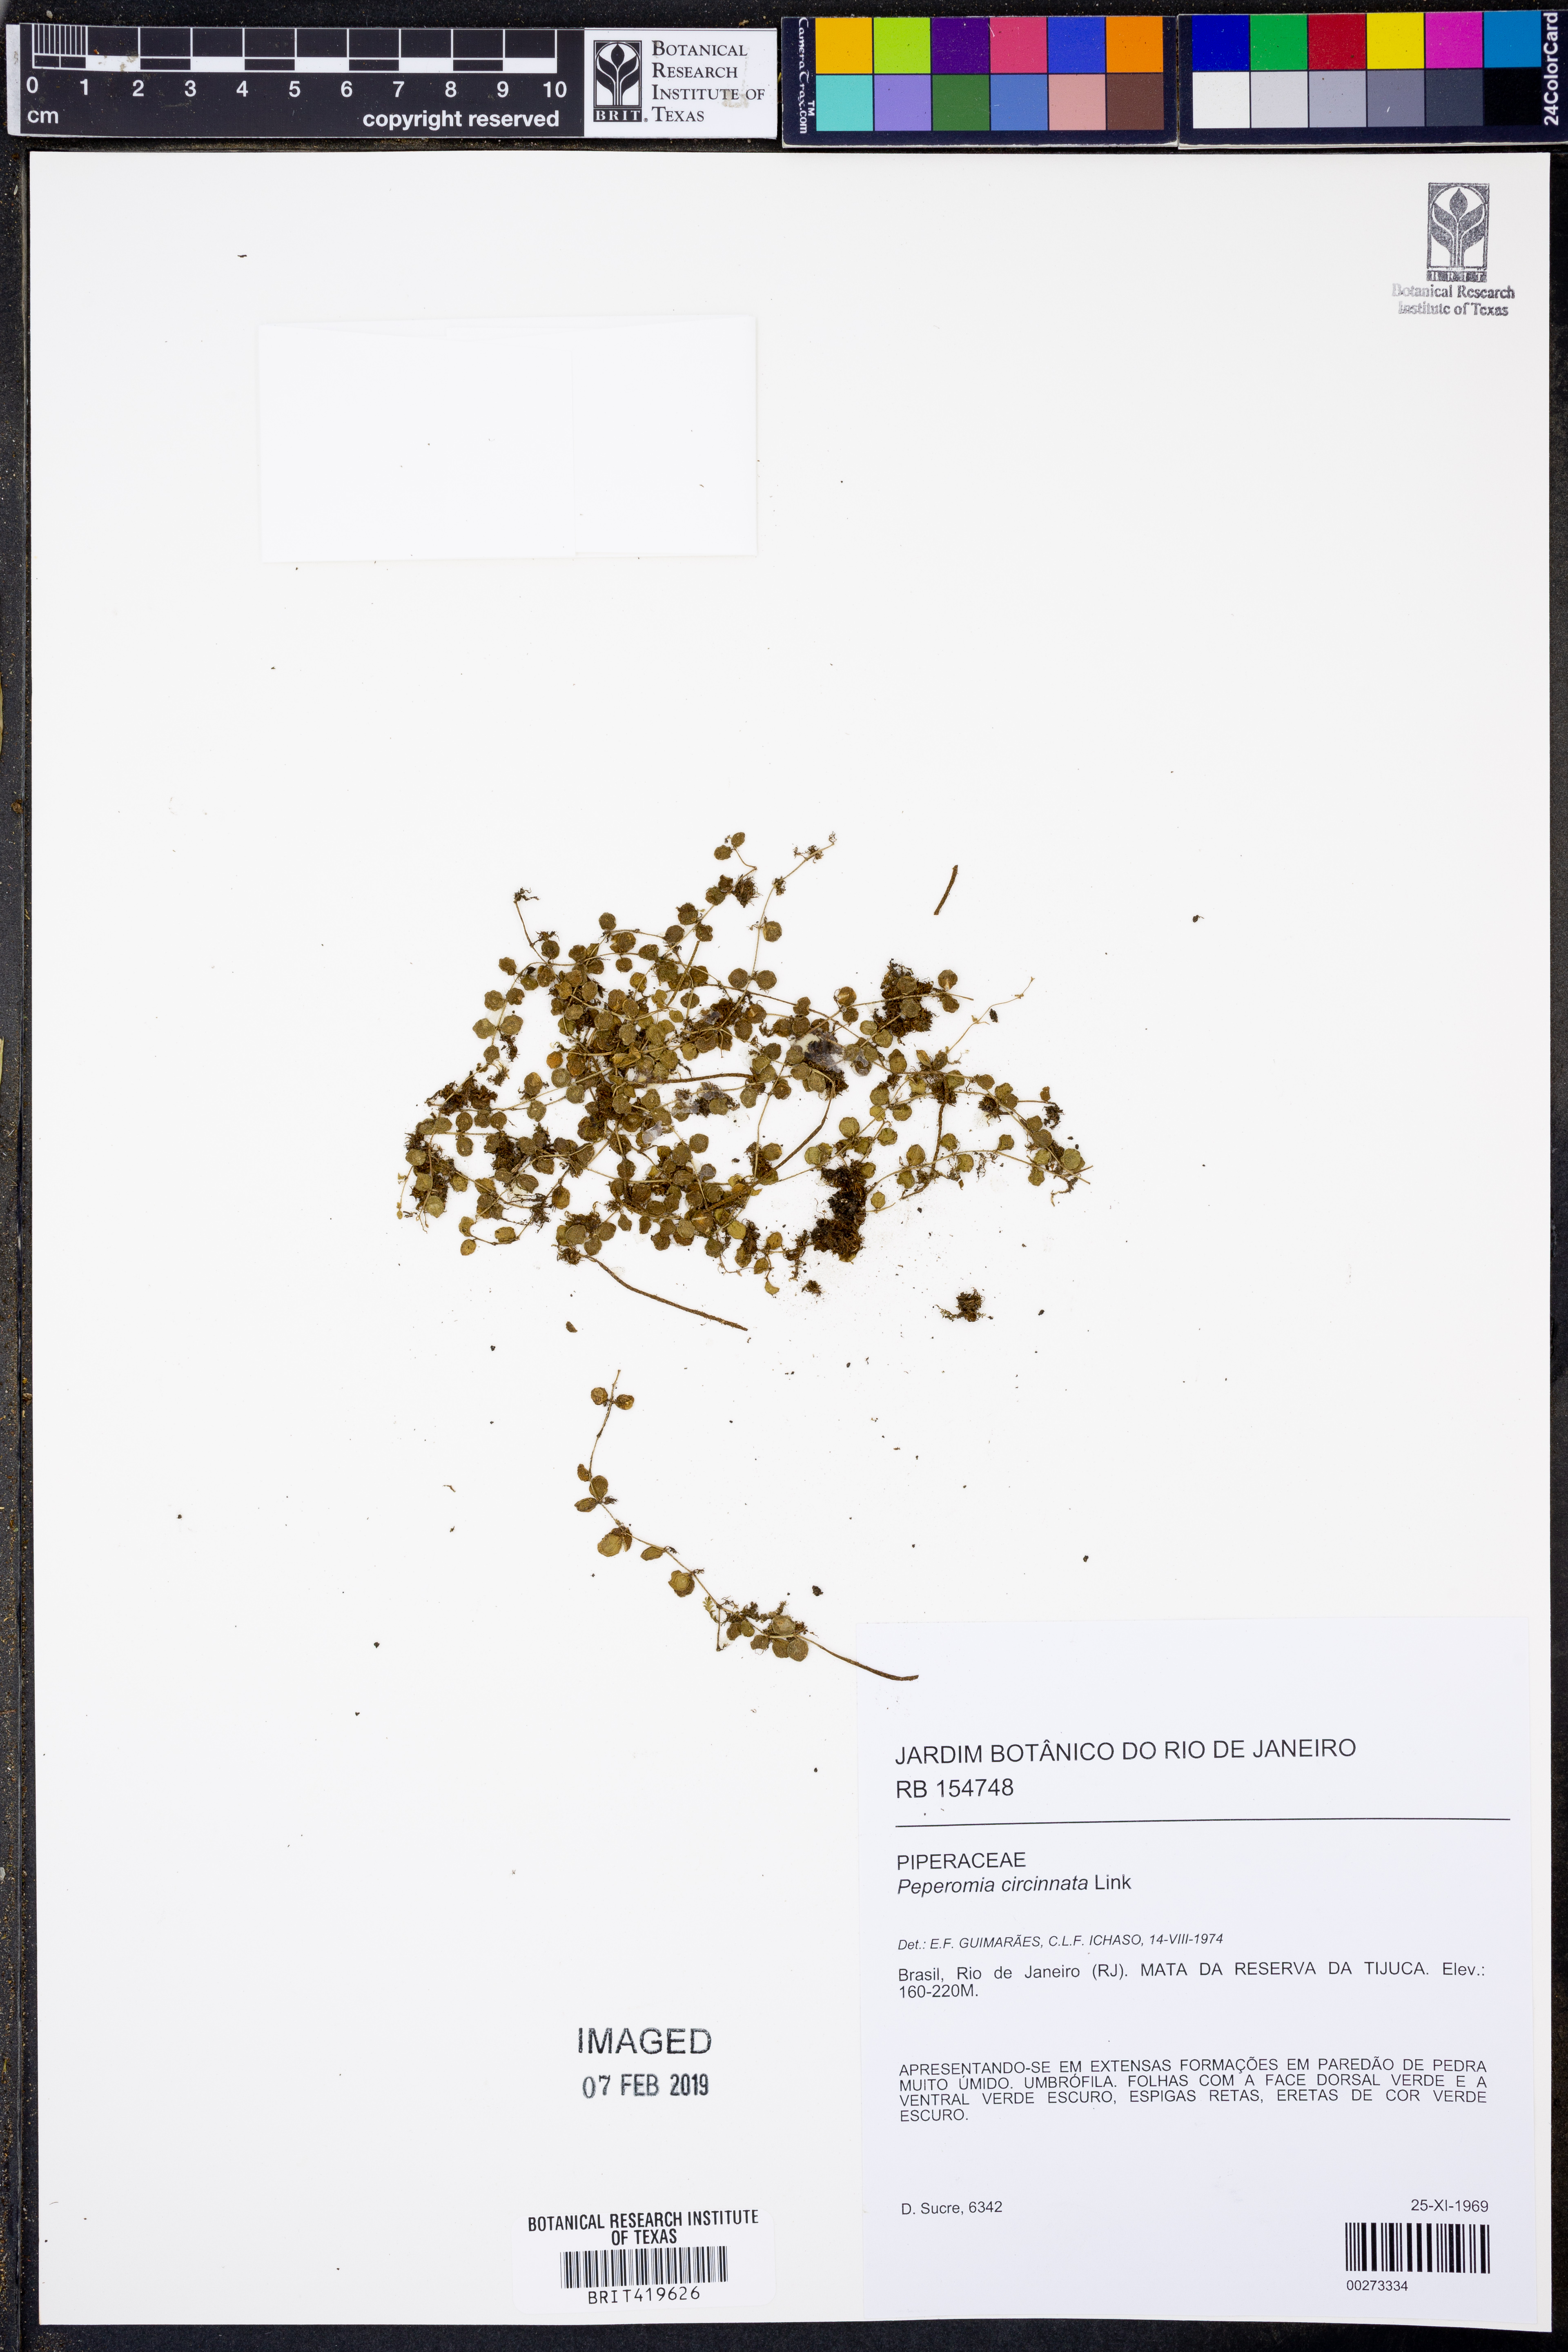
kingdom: Plantae
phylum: Tracheophyta
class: Magnoliopsida
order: Piperales
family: Piperaceae
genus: Peperomia
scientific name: Peperomia circinnata
